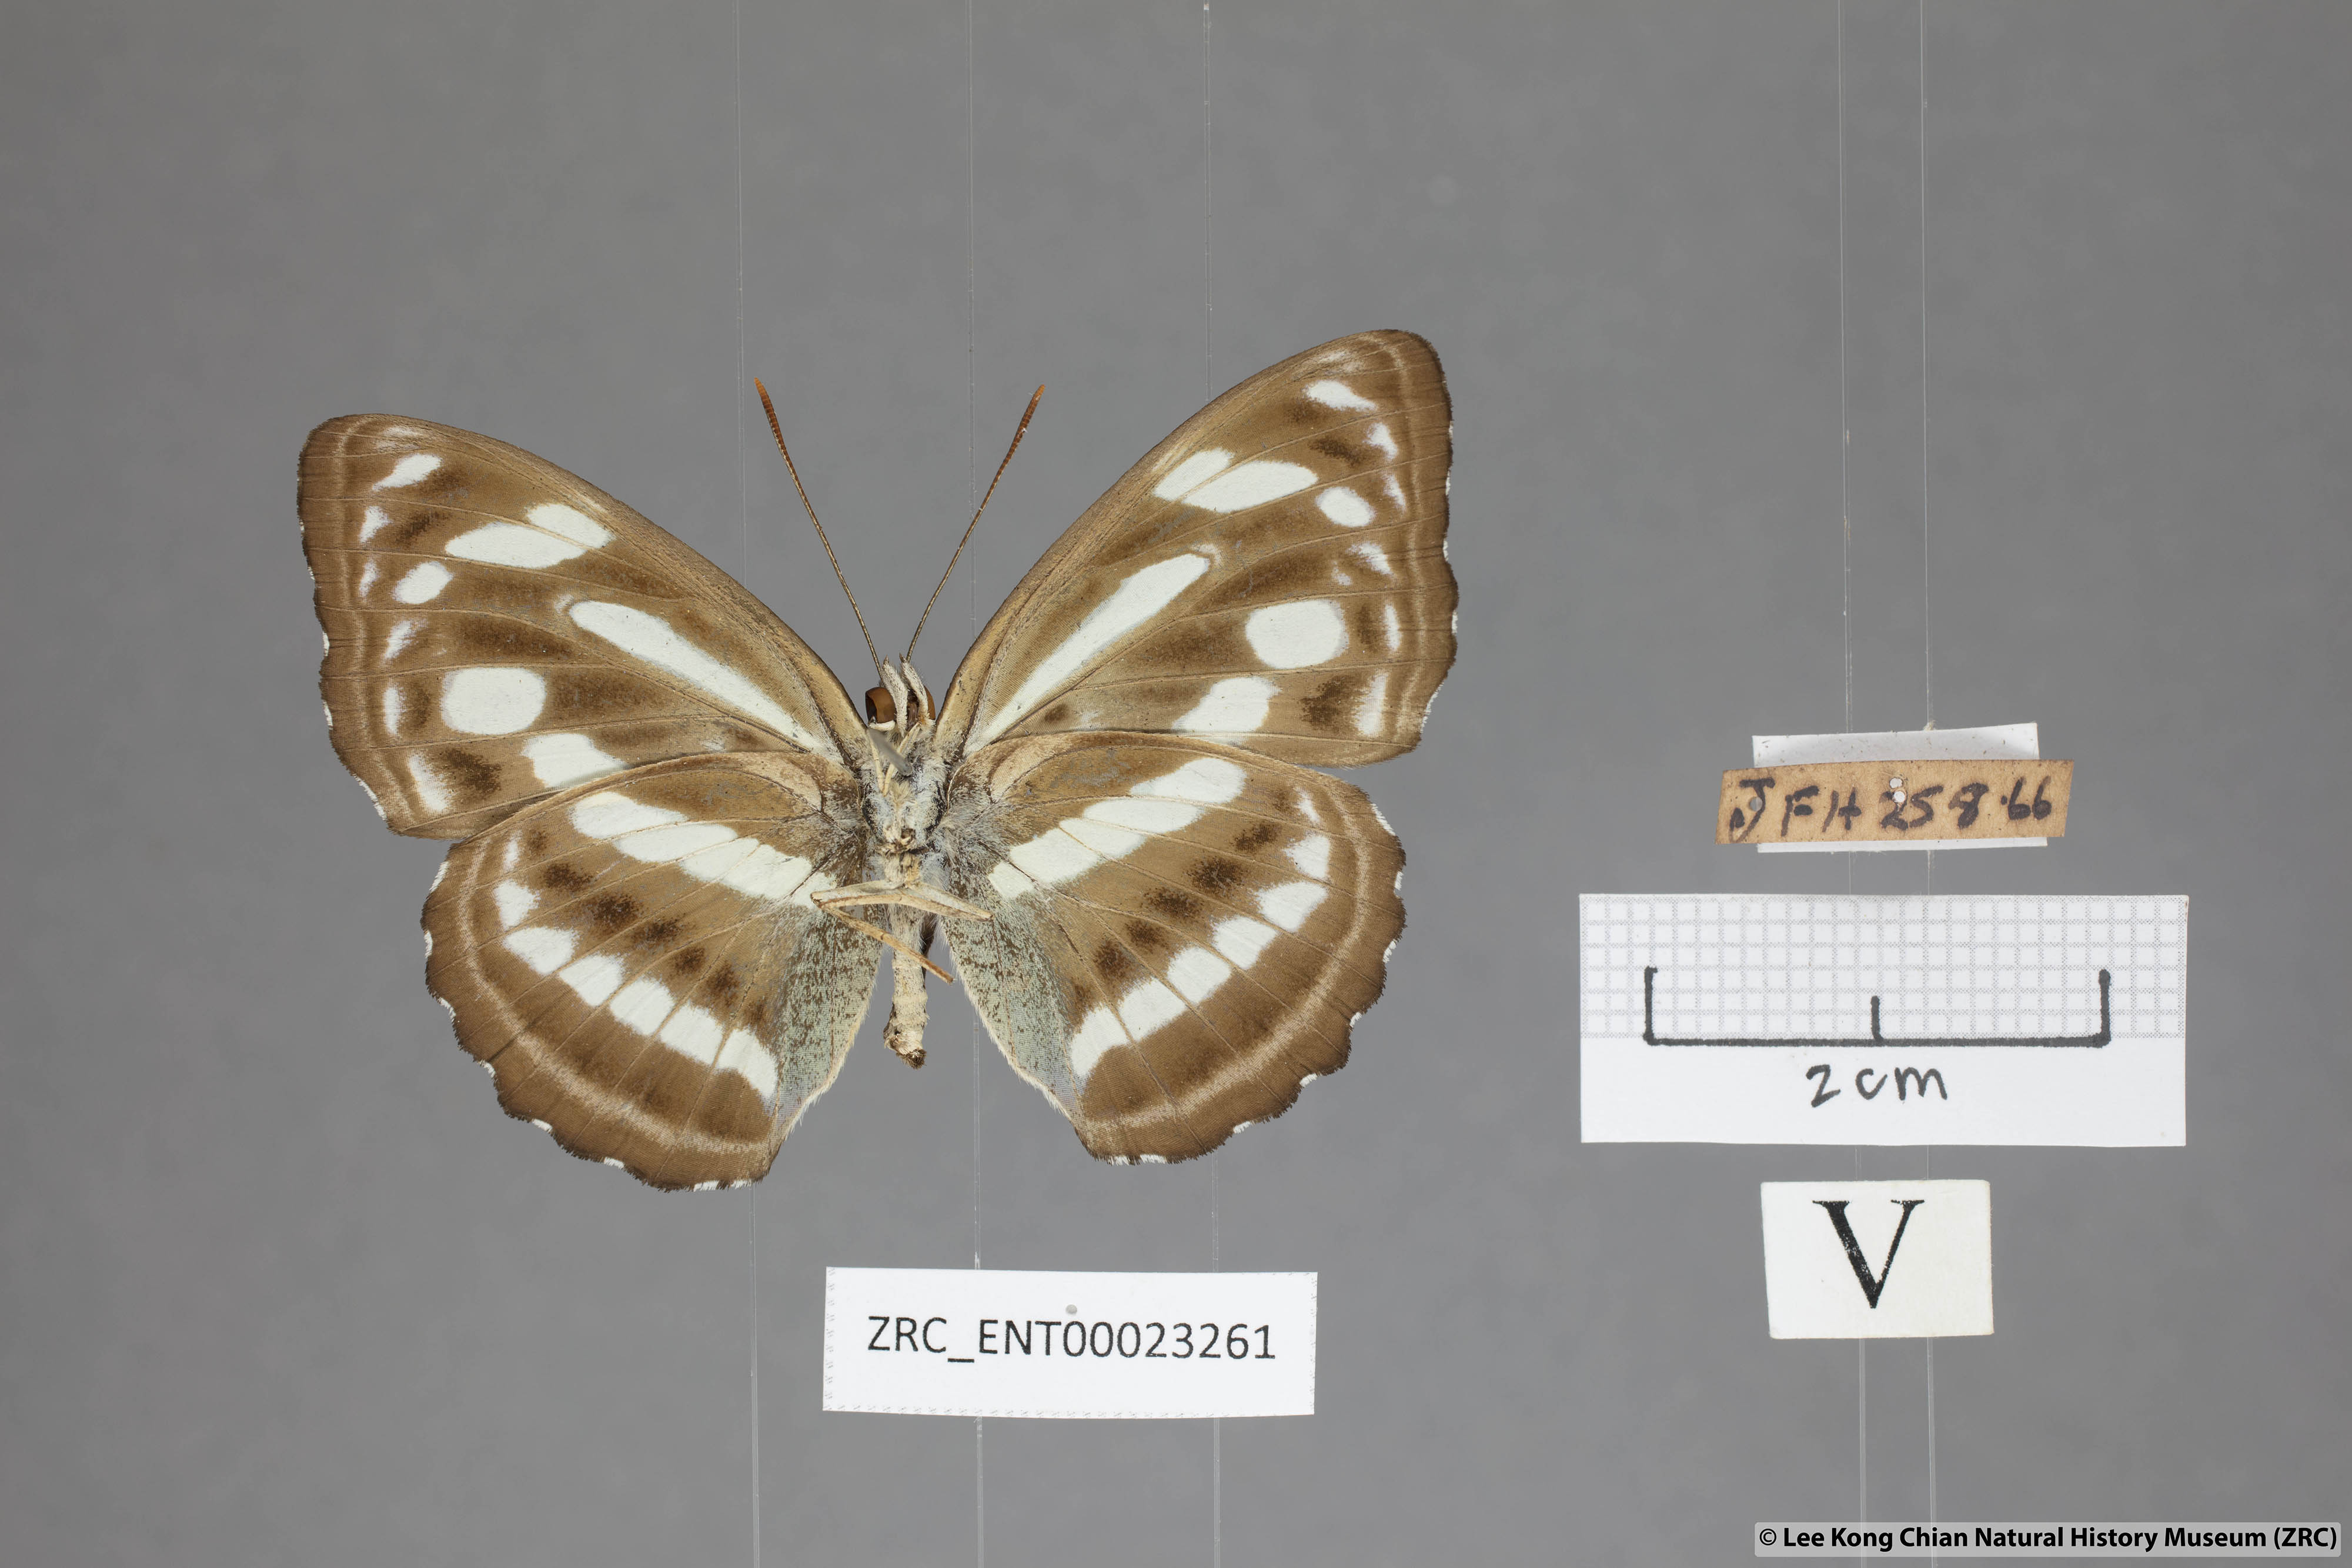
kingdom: Animalia
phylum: Arthropoda
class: Insecta
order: Lepidoptera
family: Nymphalidae
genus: Parathyma
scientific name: Parathyma pravara
